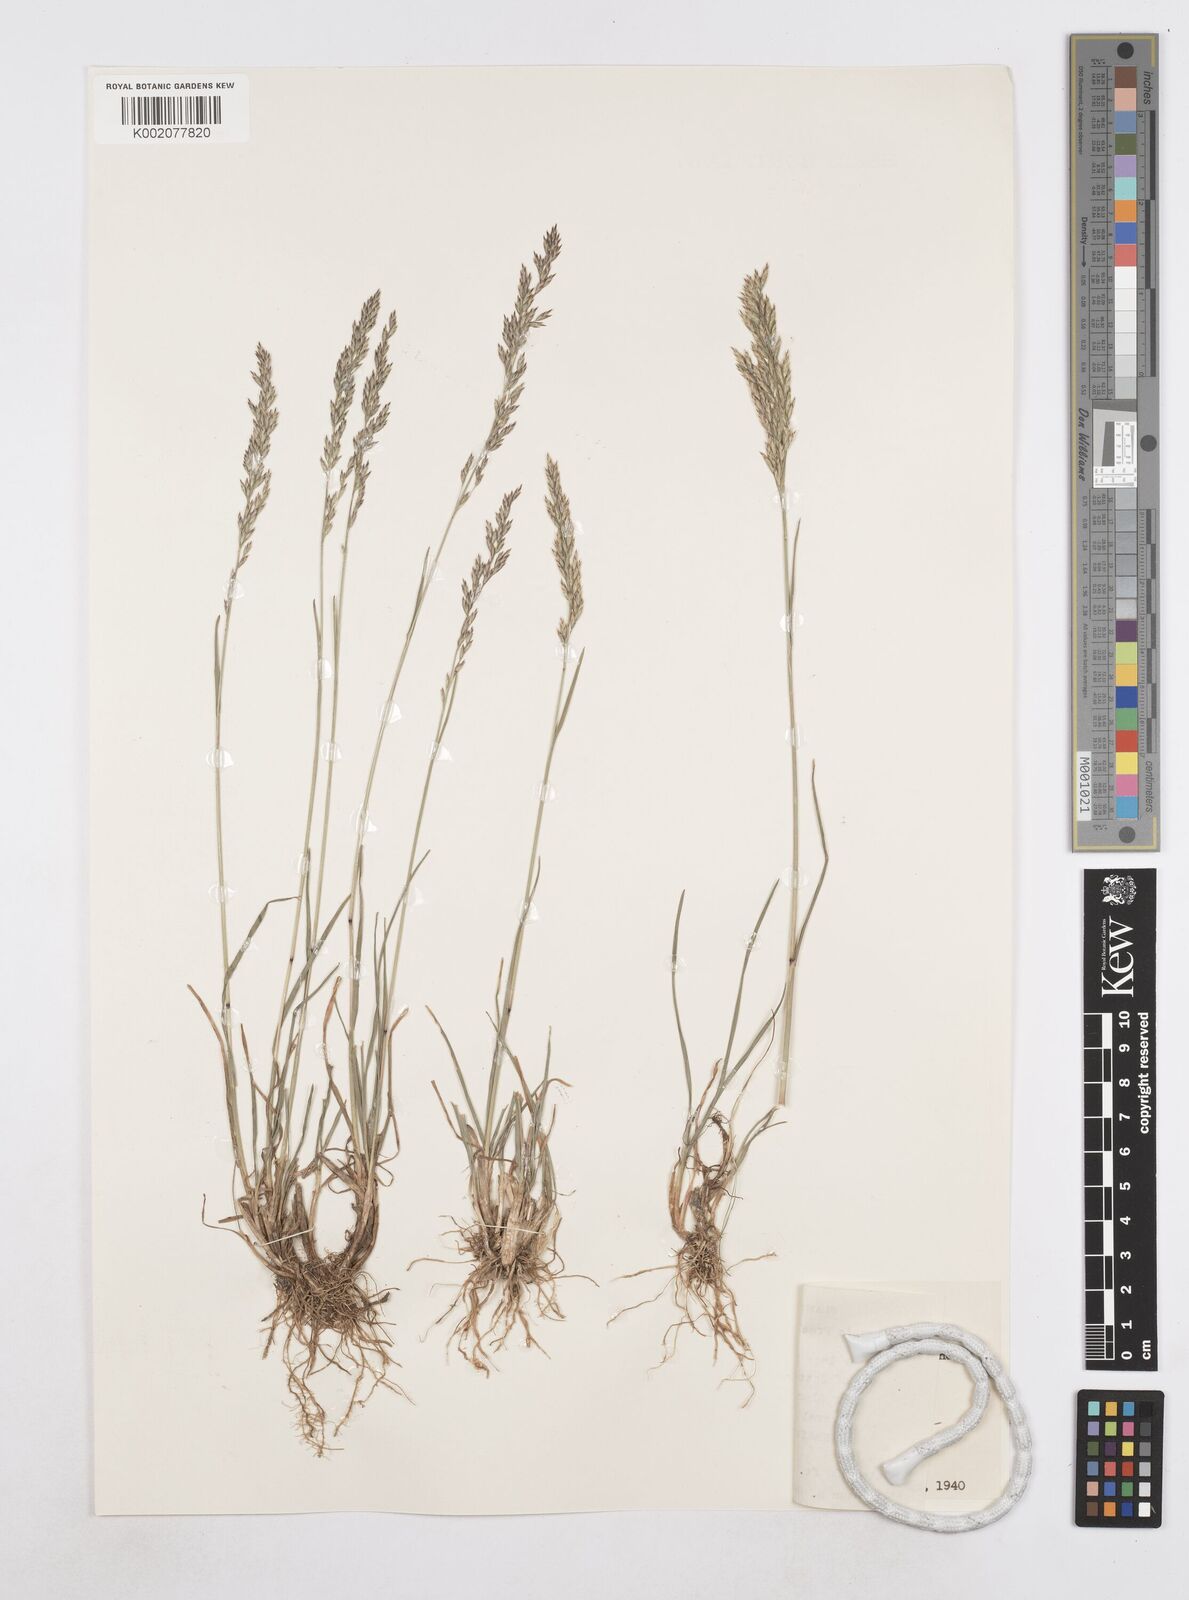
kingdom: Plantae
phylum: Tracheophyta
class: Liliopsida
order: Poales
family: Poaceae
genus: Poa
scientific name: Poa secunda
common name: Sandberg bluegrass
